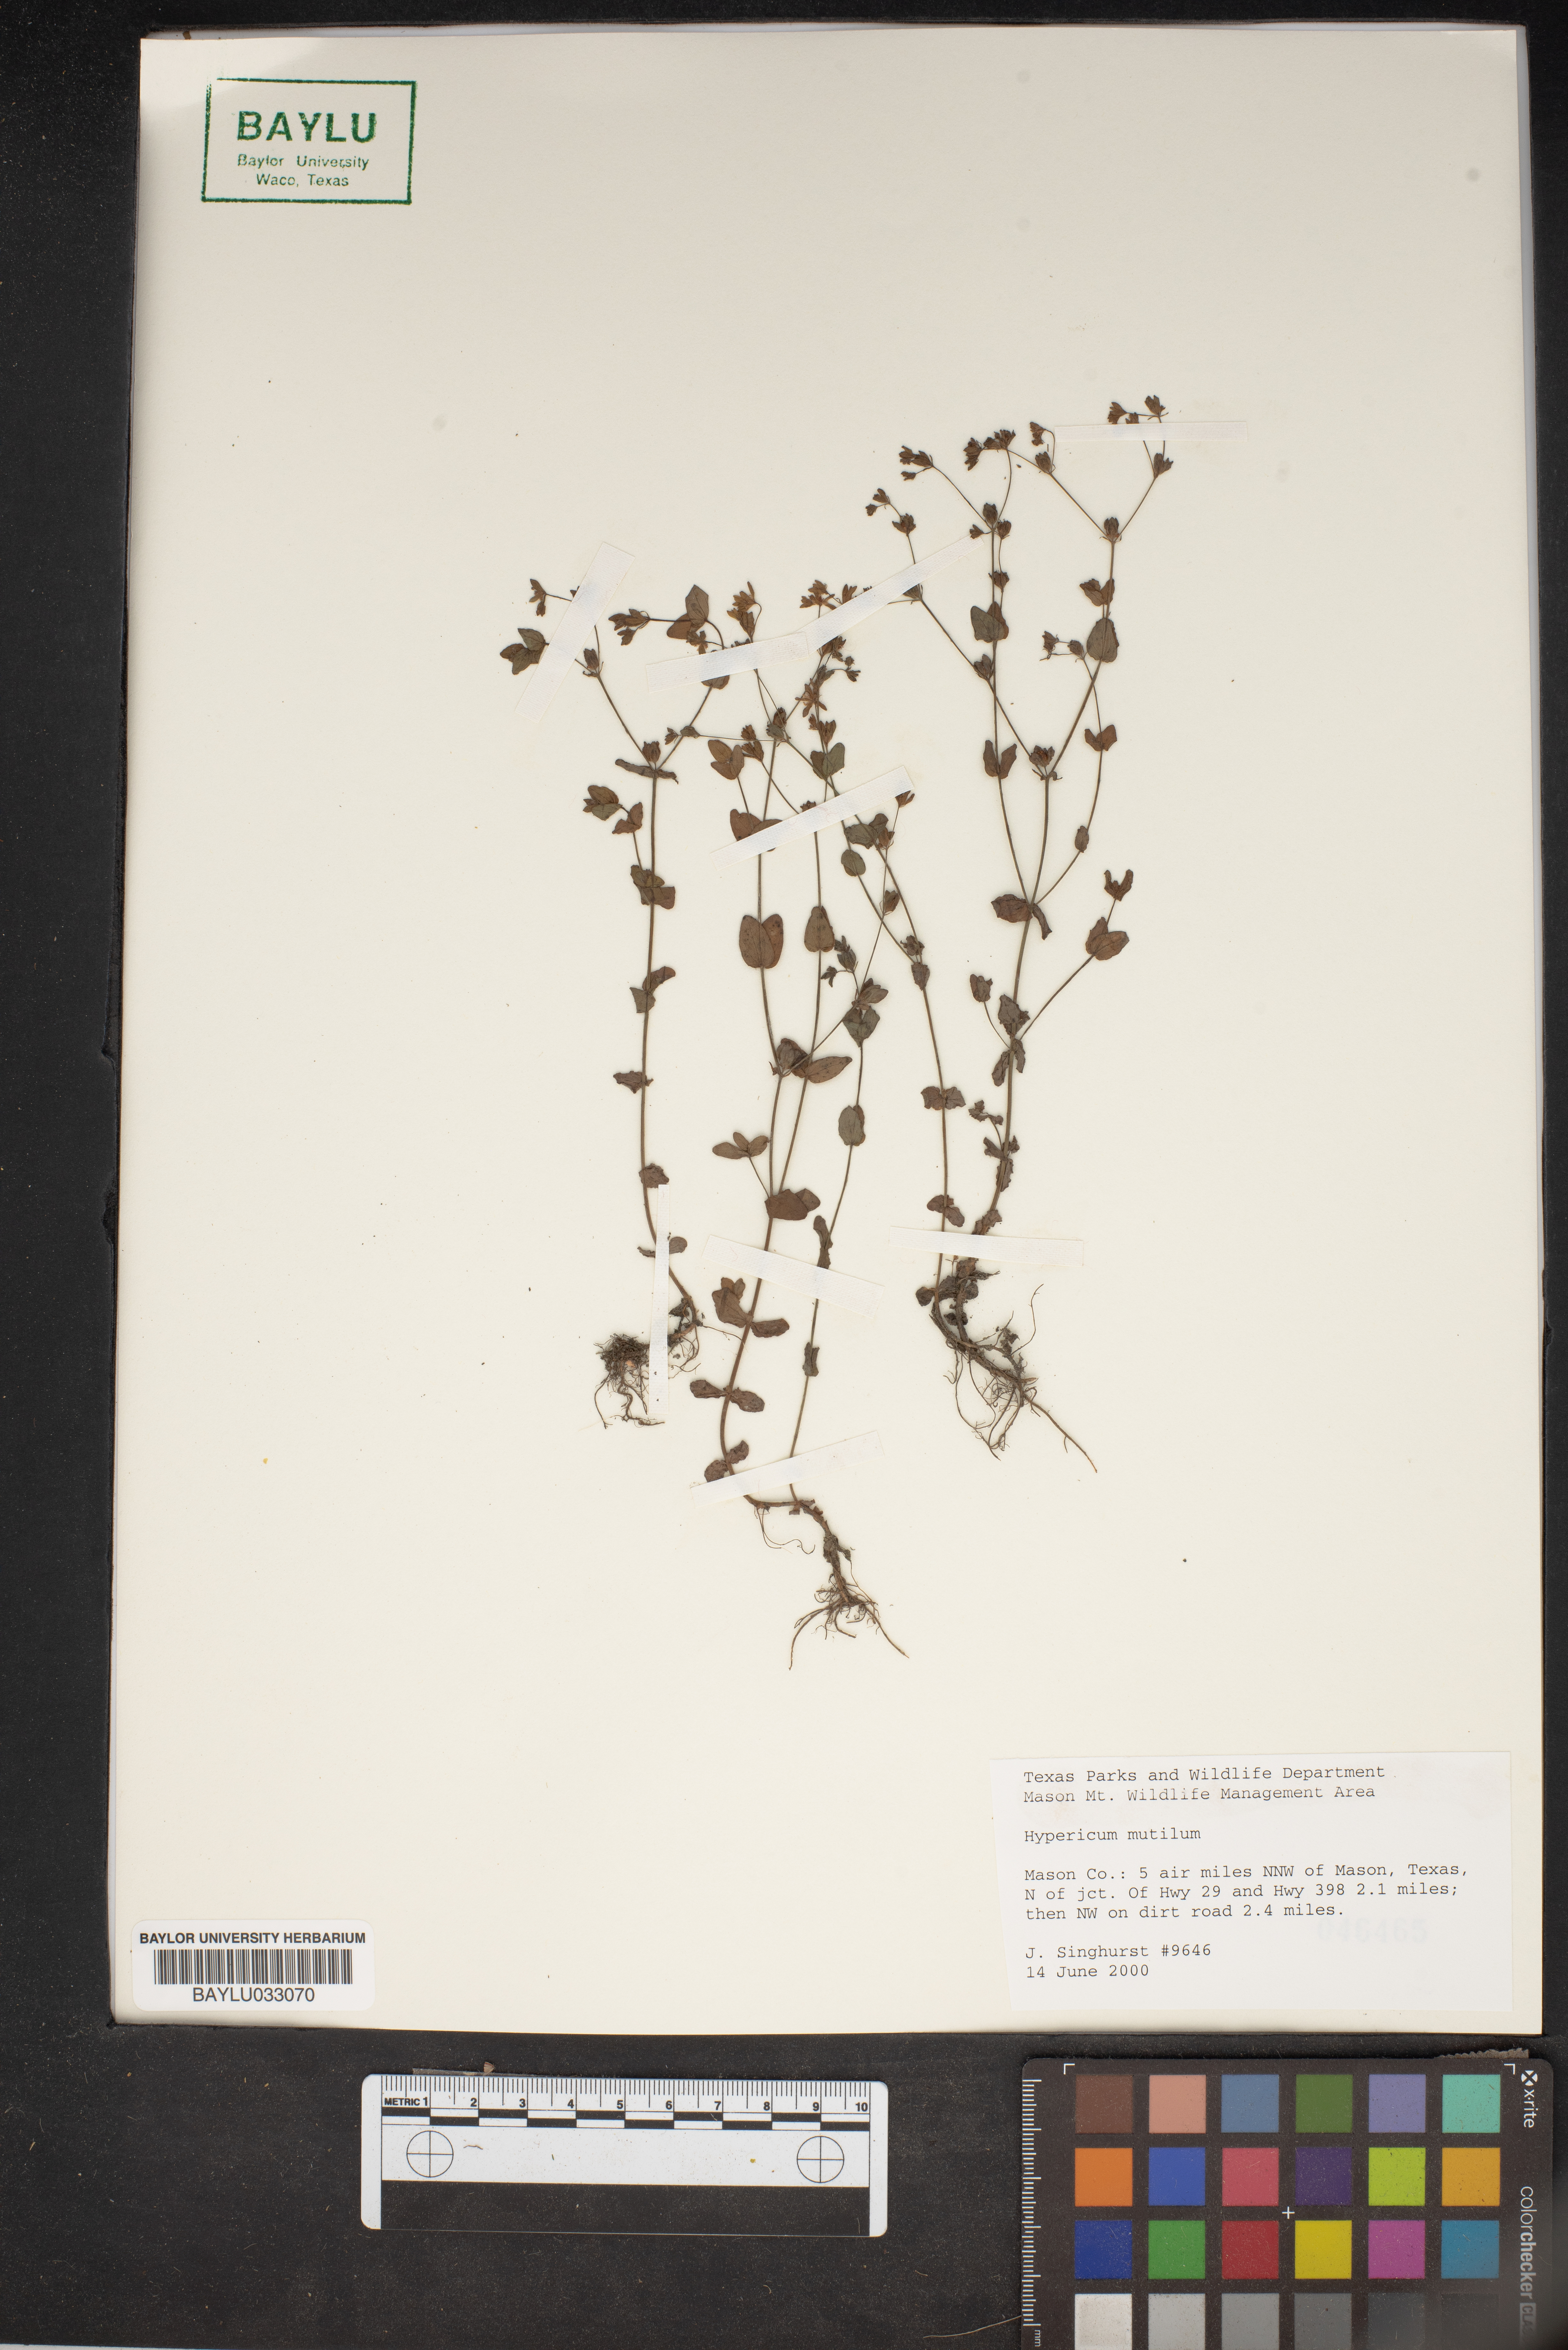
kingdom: Plantae
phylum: Tracheophyta
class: Magnoliopsida
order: Malpighiales
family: Hypericaceae
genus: Hypericum
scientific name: Hypericum mutilum
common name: Dwarf st. john's-wort
